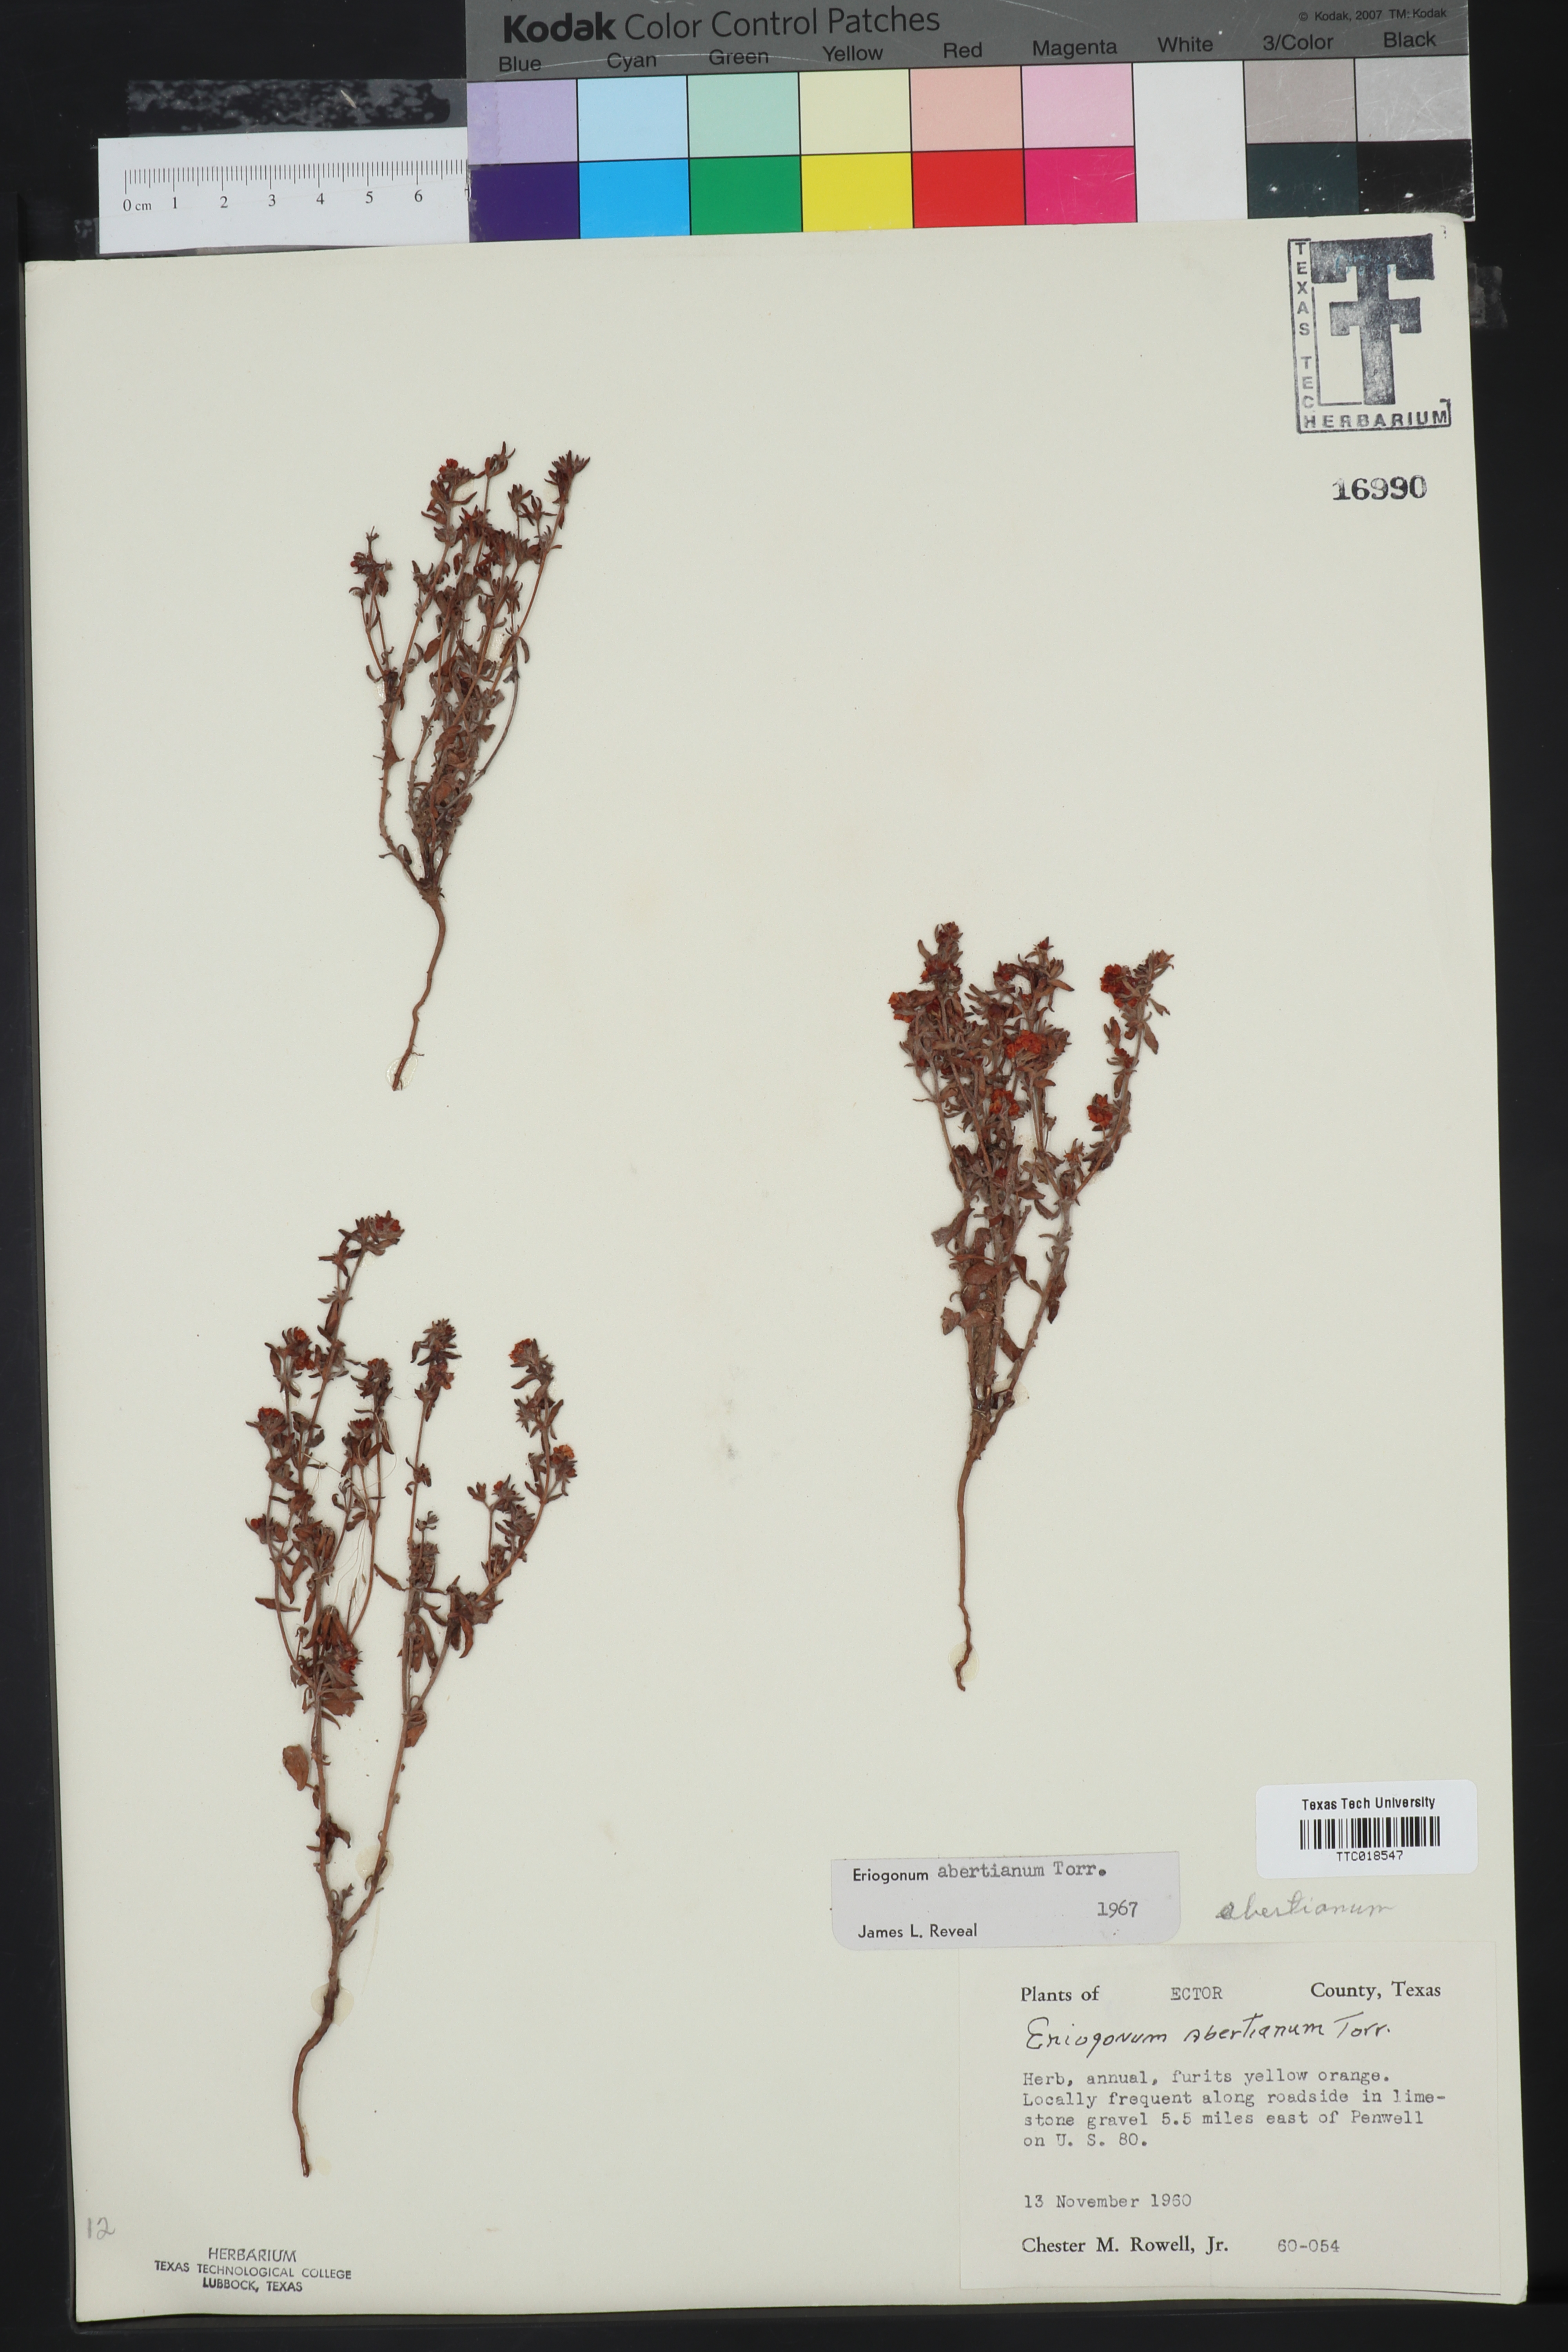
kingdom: Plantae
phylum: Tracheophyta
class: Magnoliopsida
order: Caryophyllales
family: Polygonaceae
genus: Eriogonum
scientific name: Eriogonum abertianum
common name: Abert's wild buckwheat
